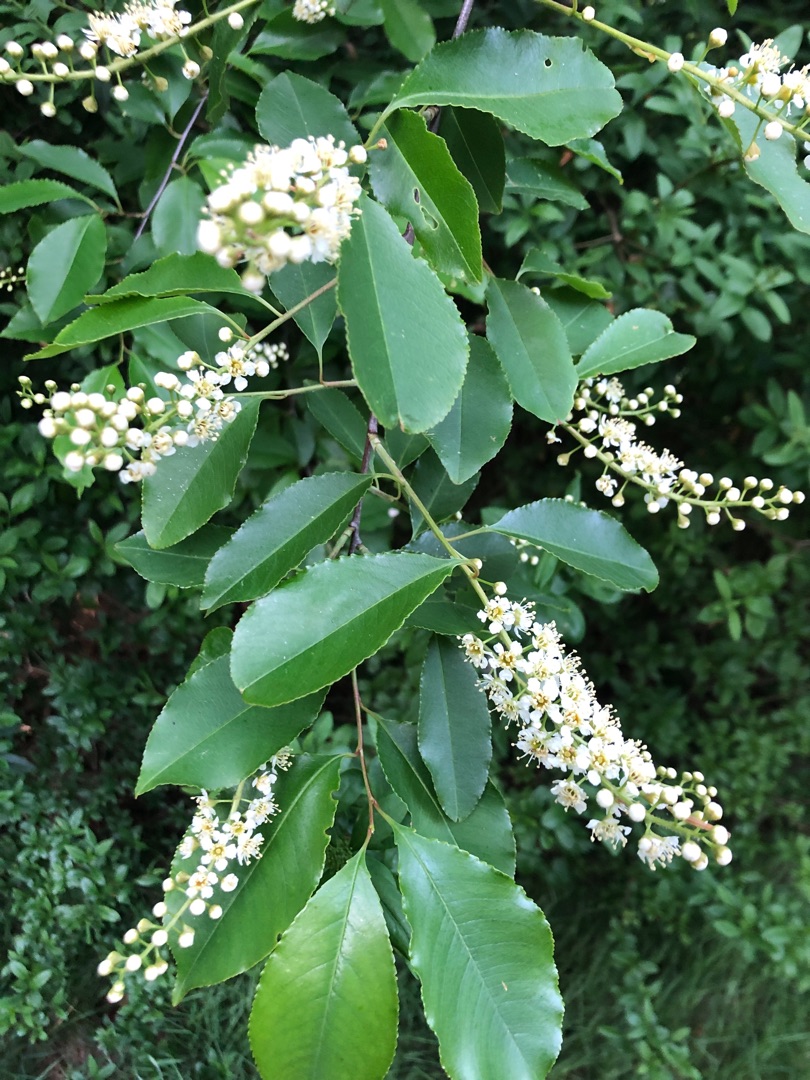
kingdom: Plantae
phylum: Tracheophyta
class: Magnoliopsida
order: Rosales
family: Rosaceae
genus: Prunus
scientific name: Prunus serotina
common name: Glansbladet hæg
